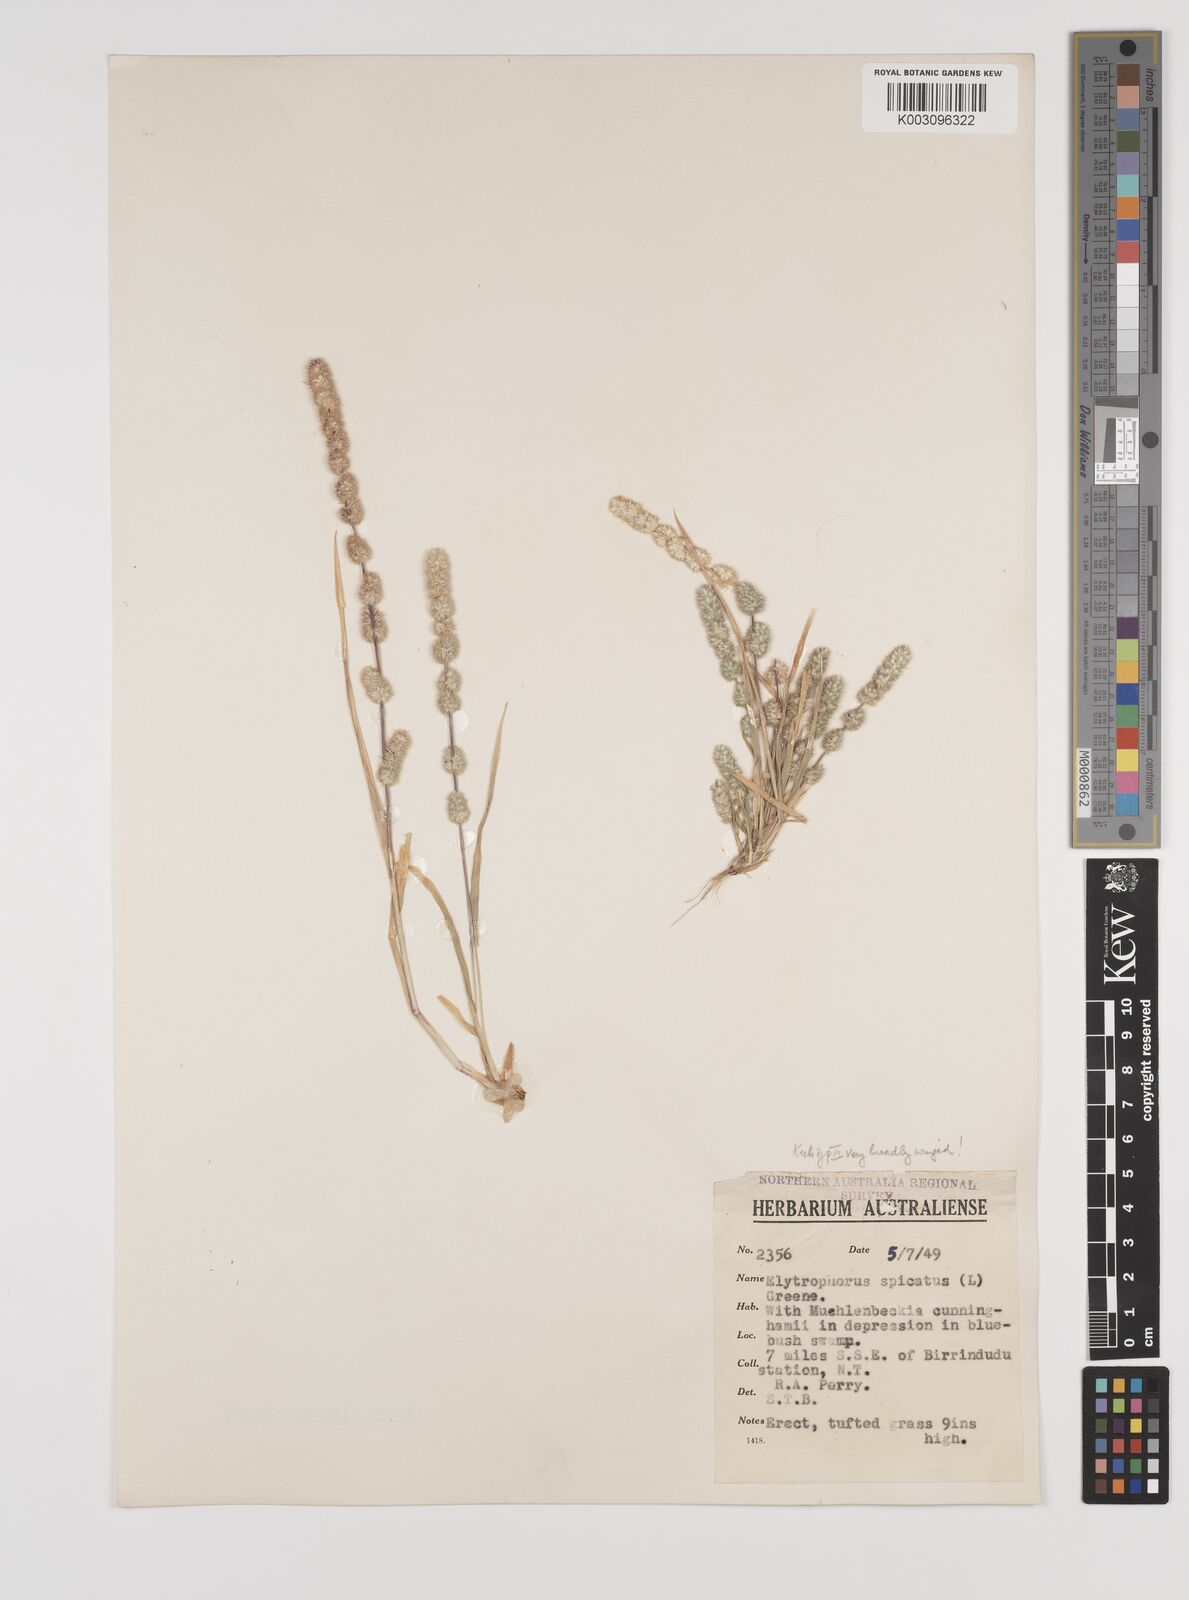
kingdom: Plantae
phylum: Tracheophyta
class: Liliopsida
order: Poales
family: Poaceae
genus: Elytrophorus
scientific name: Elytrophorus spicatus
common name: Spike grass
